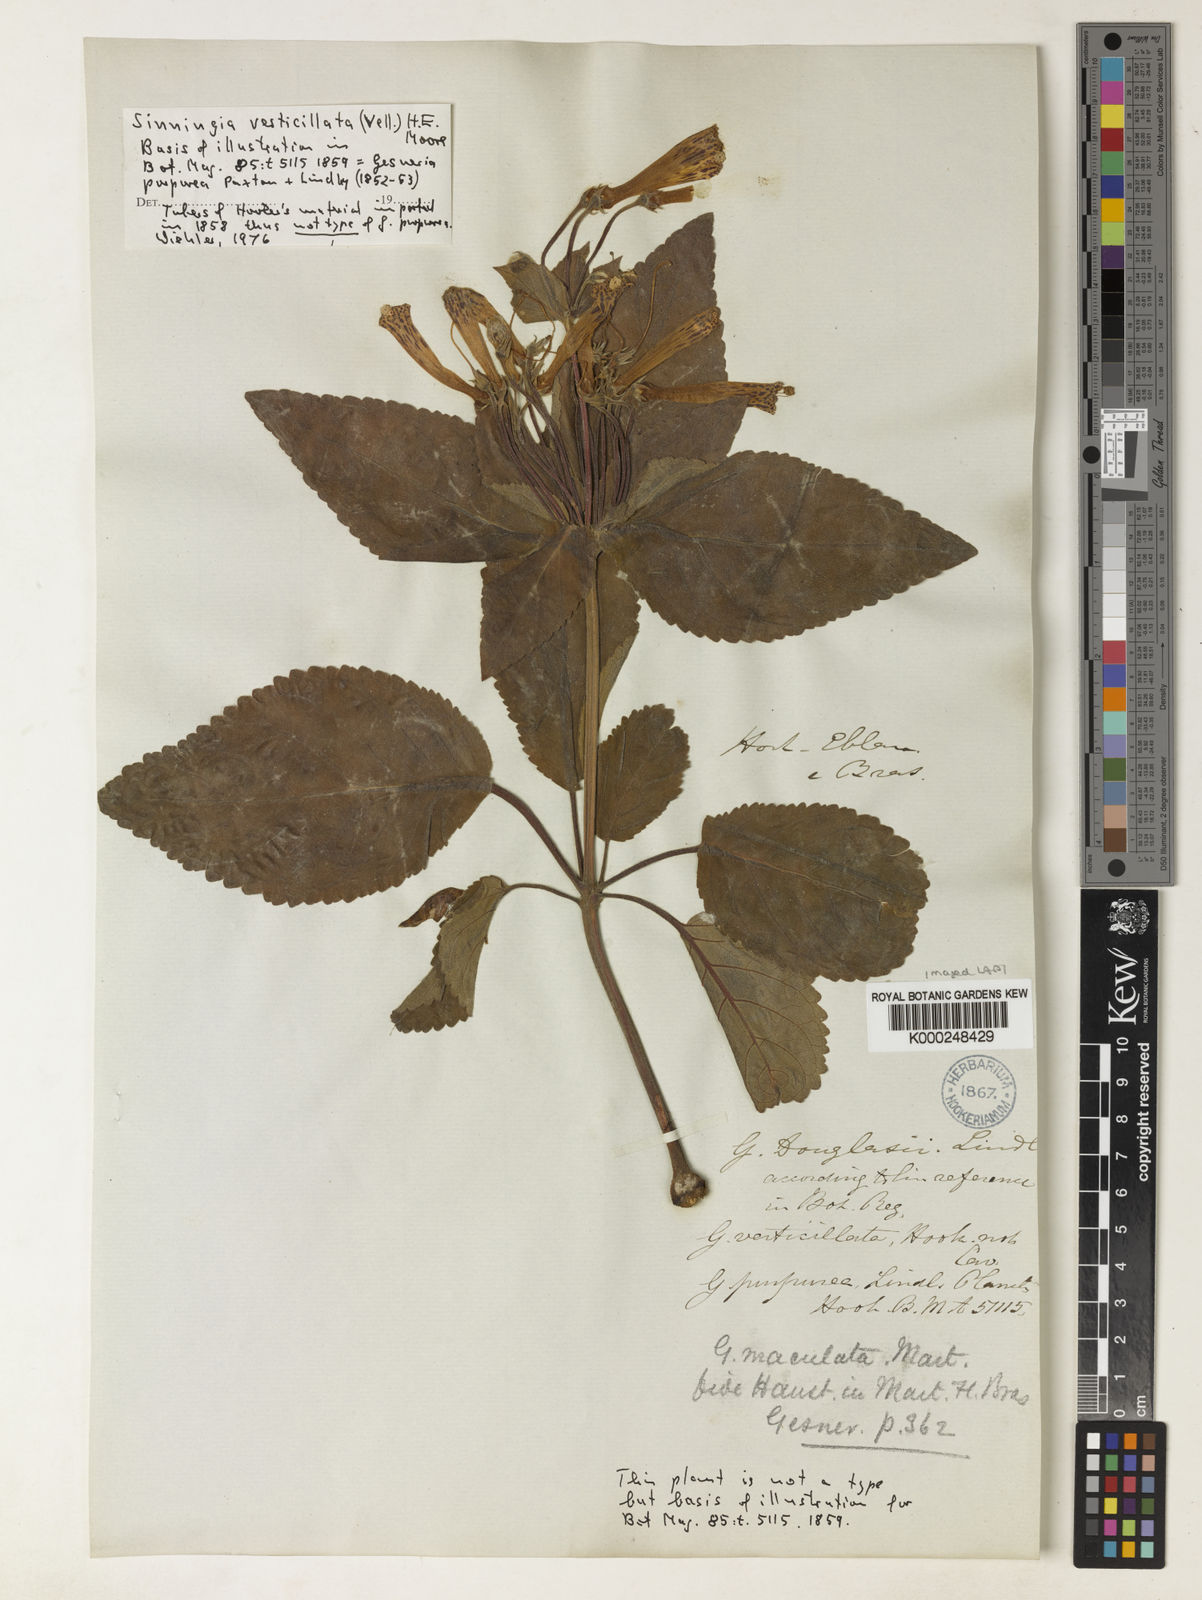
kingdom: Plantae
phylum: Tracheophyta
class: Magnoliopsida
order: Lamiales
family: Gesneriaceae
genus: Sinningia
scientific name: Sinningia douglasii
